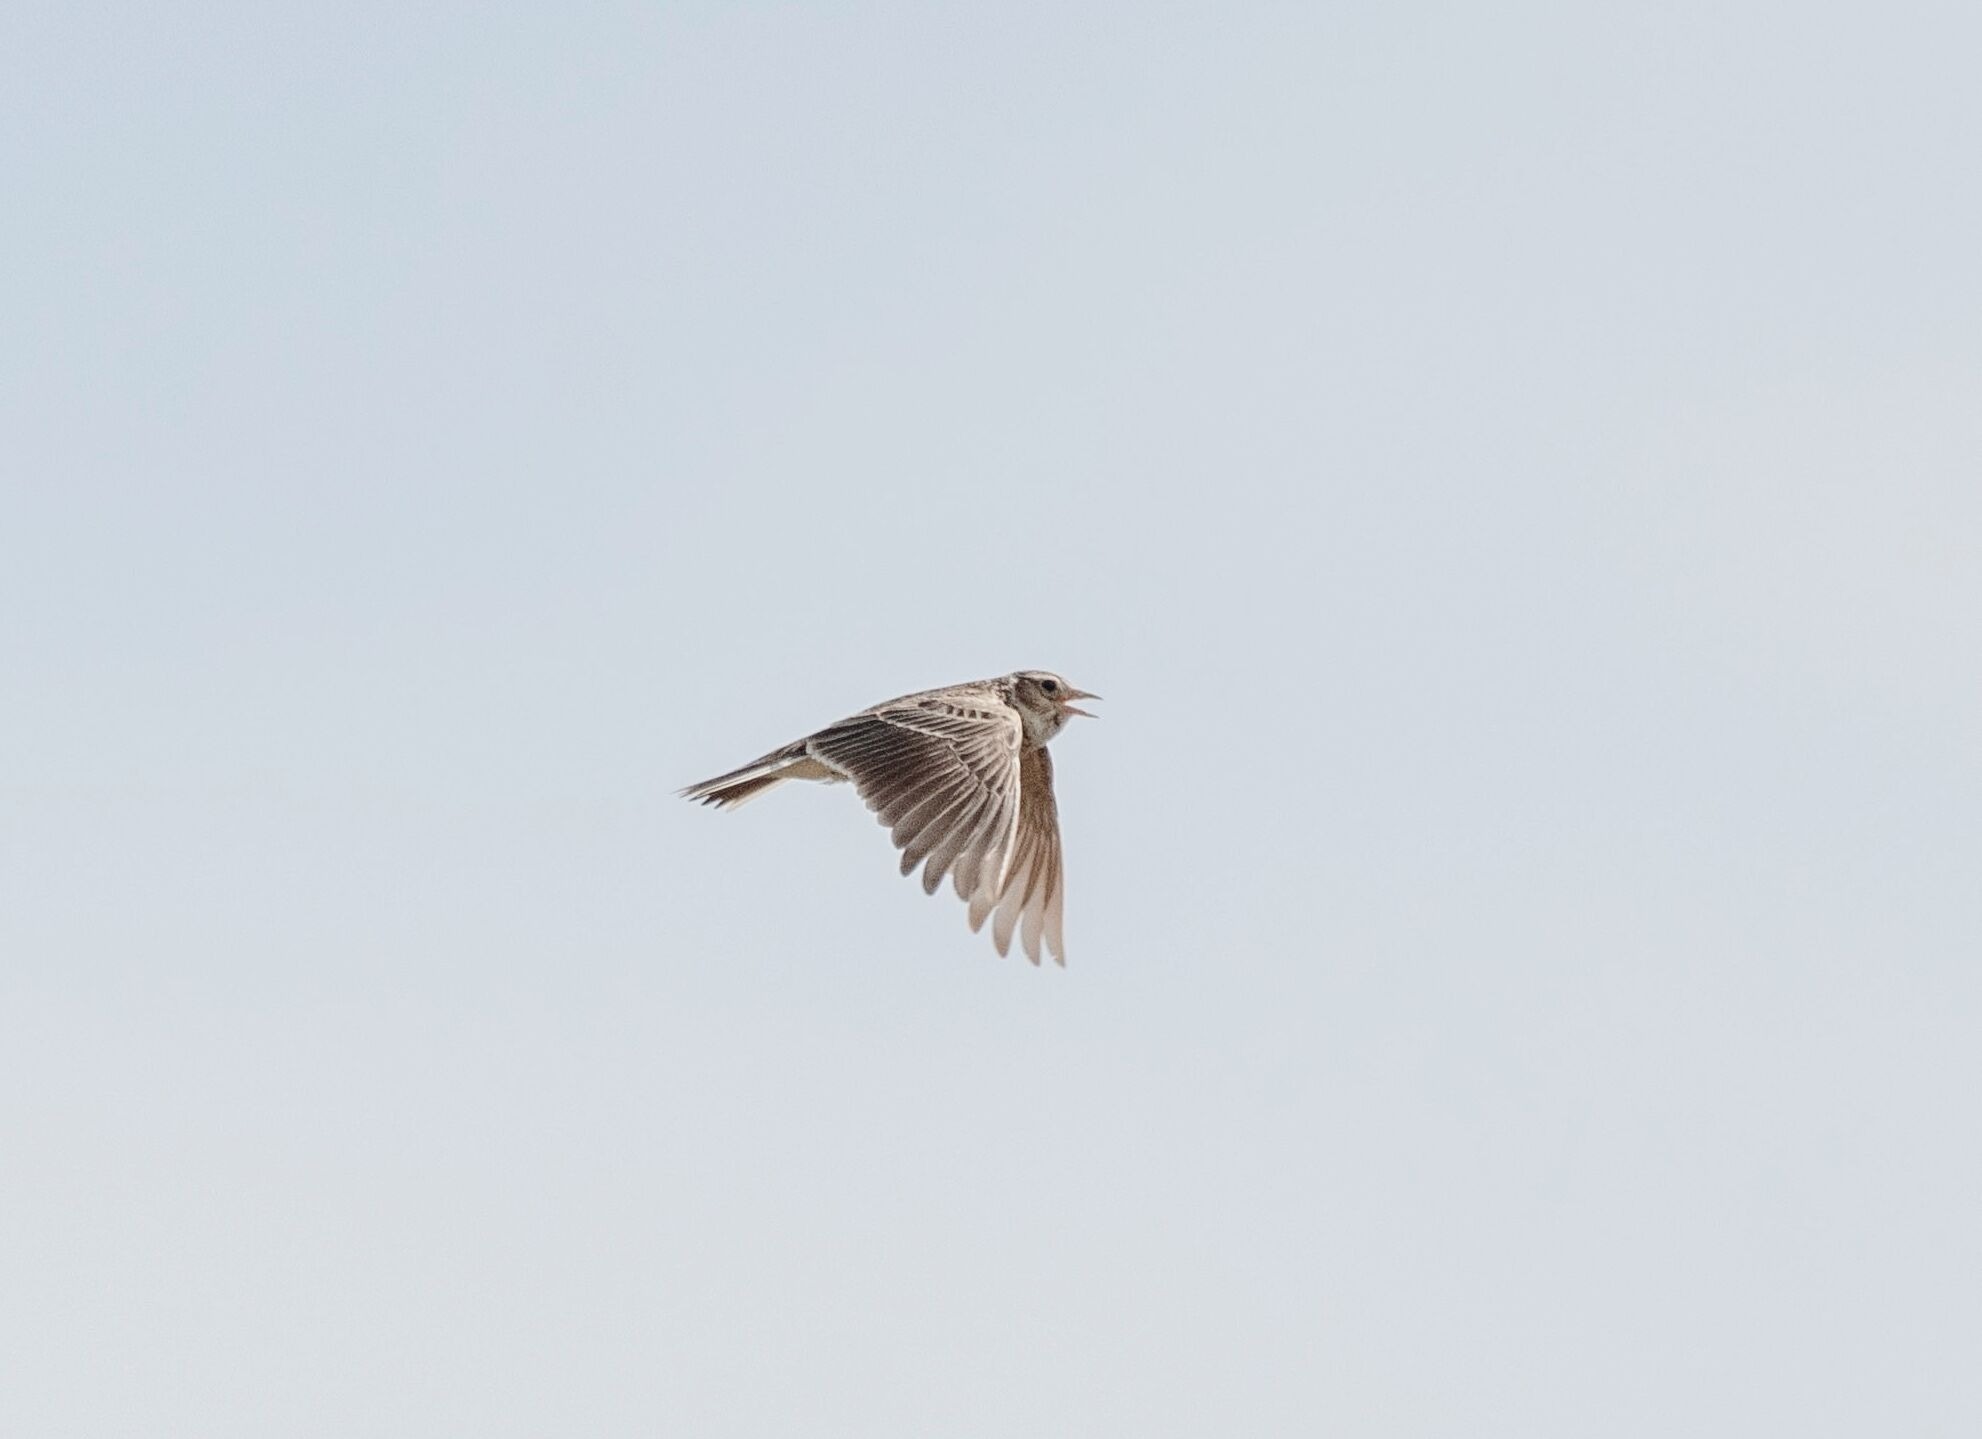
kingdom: Animalia
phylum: Chordata
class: Aves
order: Passeriformes
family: Alaudidae
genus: Alauda
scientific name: Alauda arvensis
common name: Sanglærke
